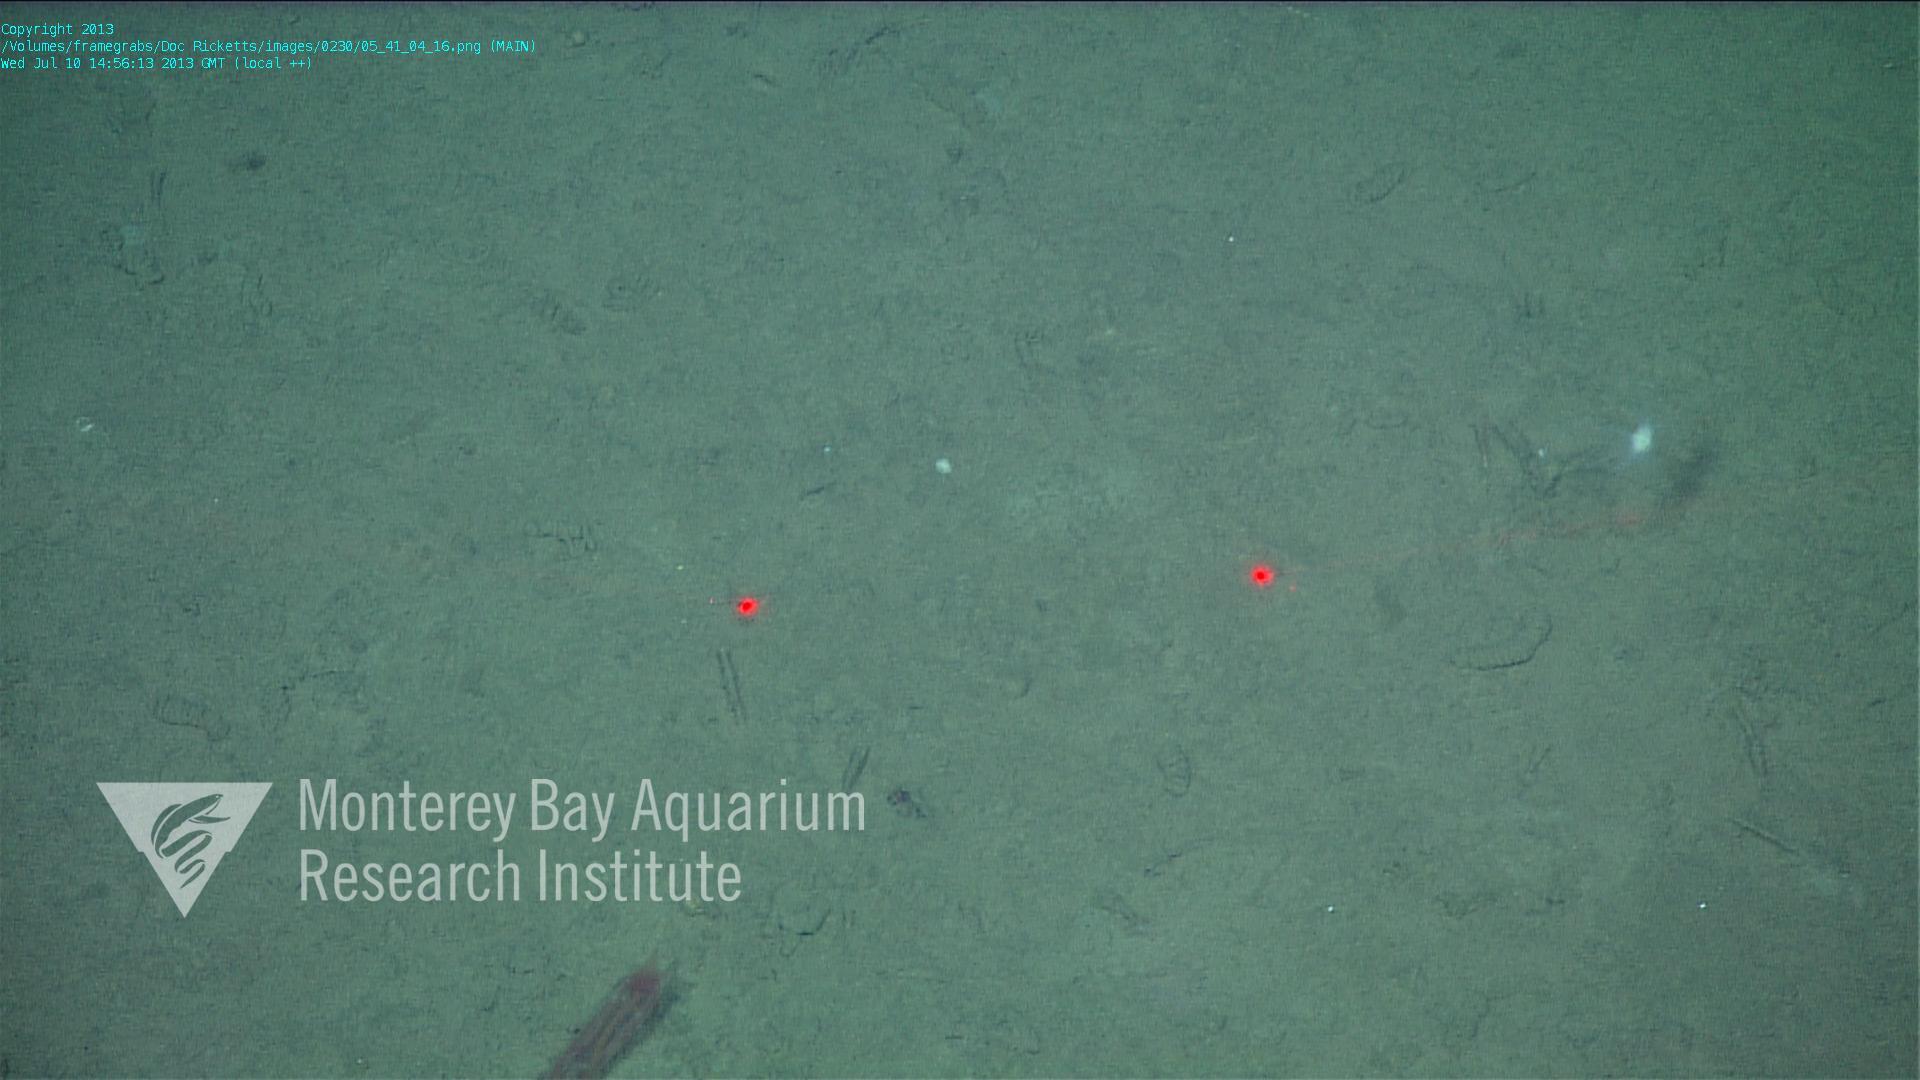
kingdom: Animalia
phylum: Porifera
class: Demospongiae
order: Poecilosclerida
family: Cladorhizidae
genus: Cladorhiza
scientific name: Cladorhiza
